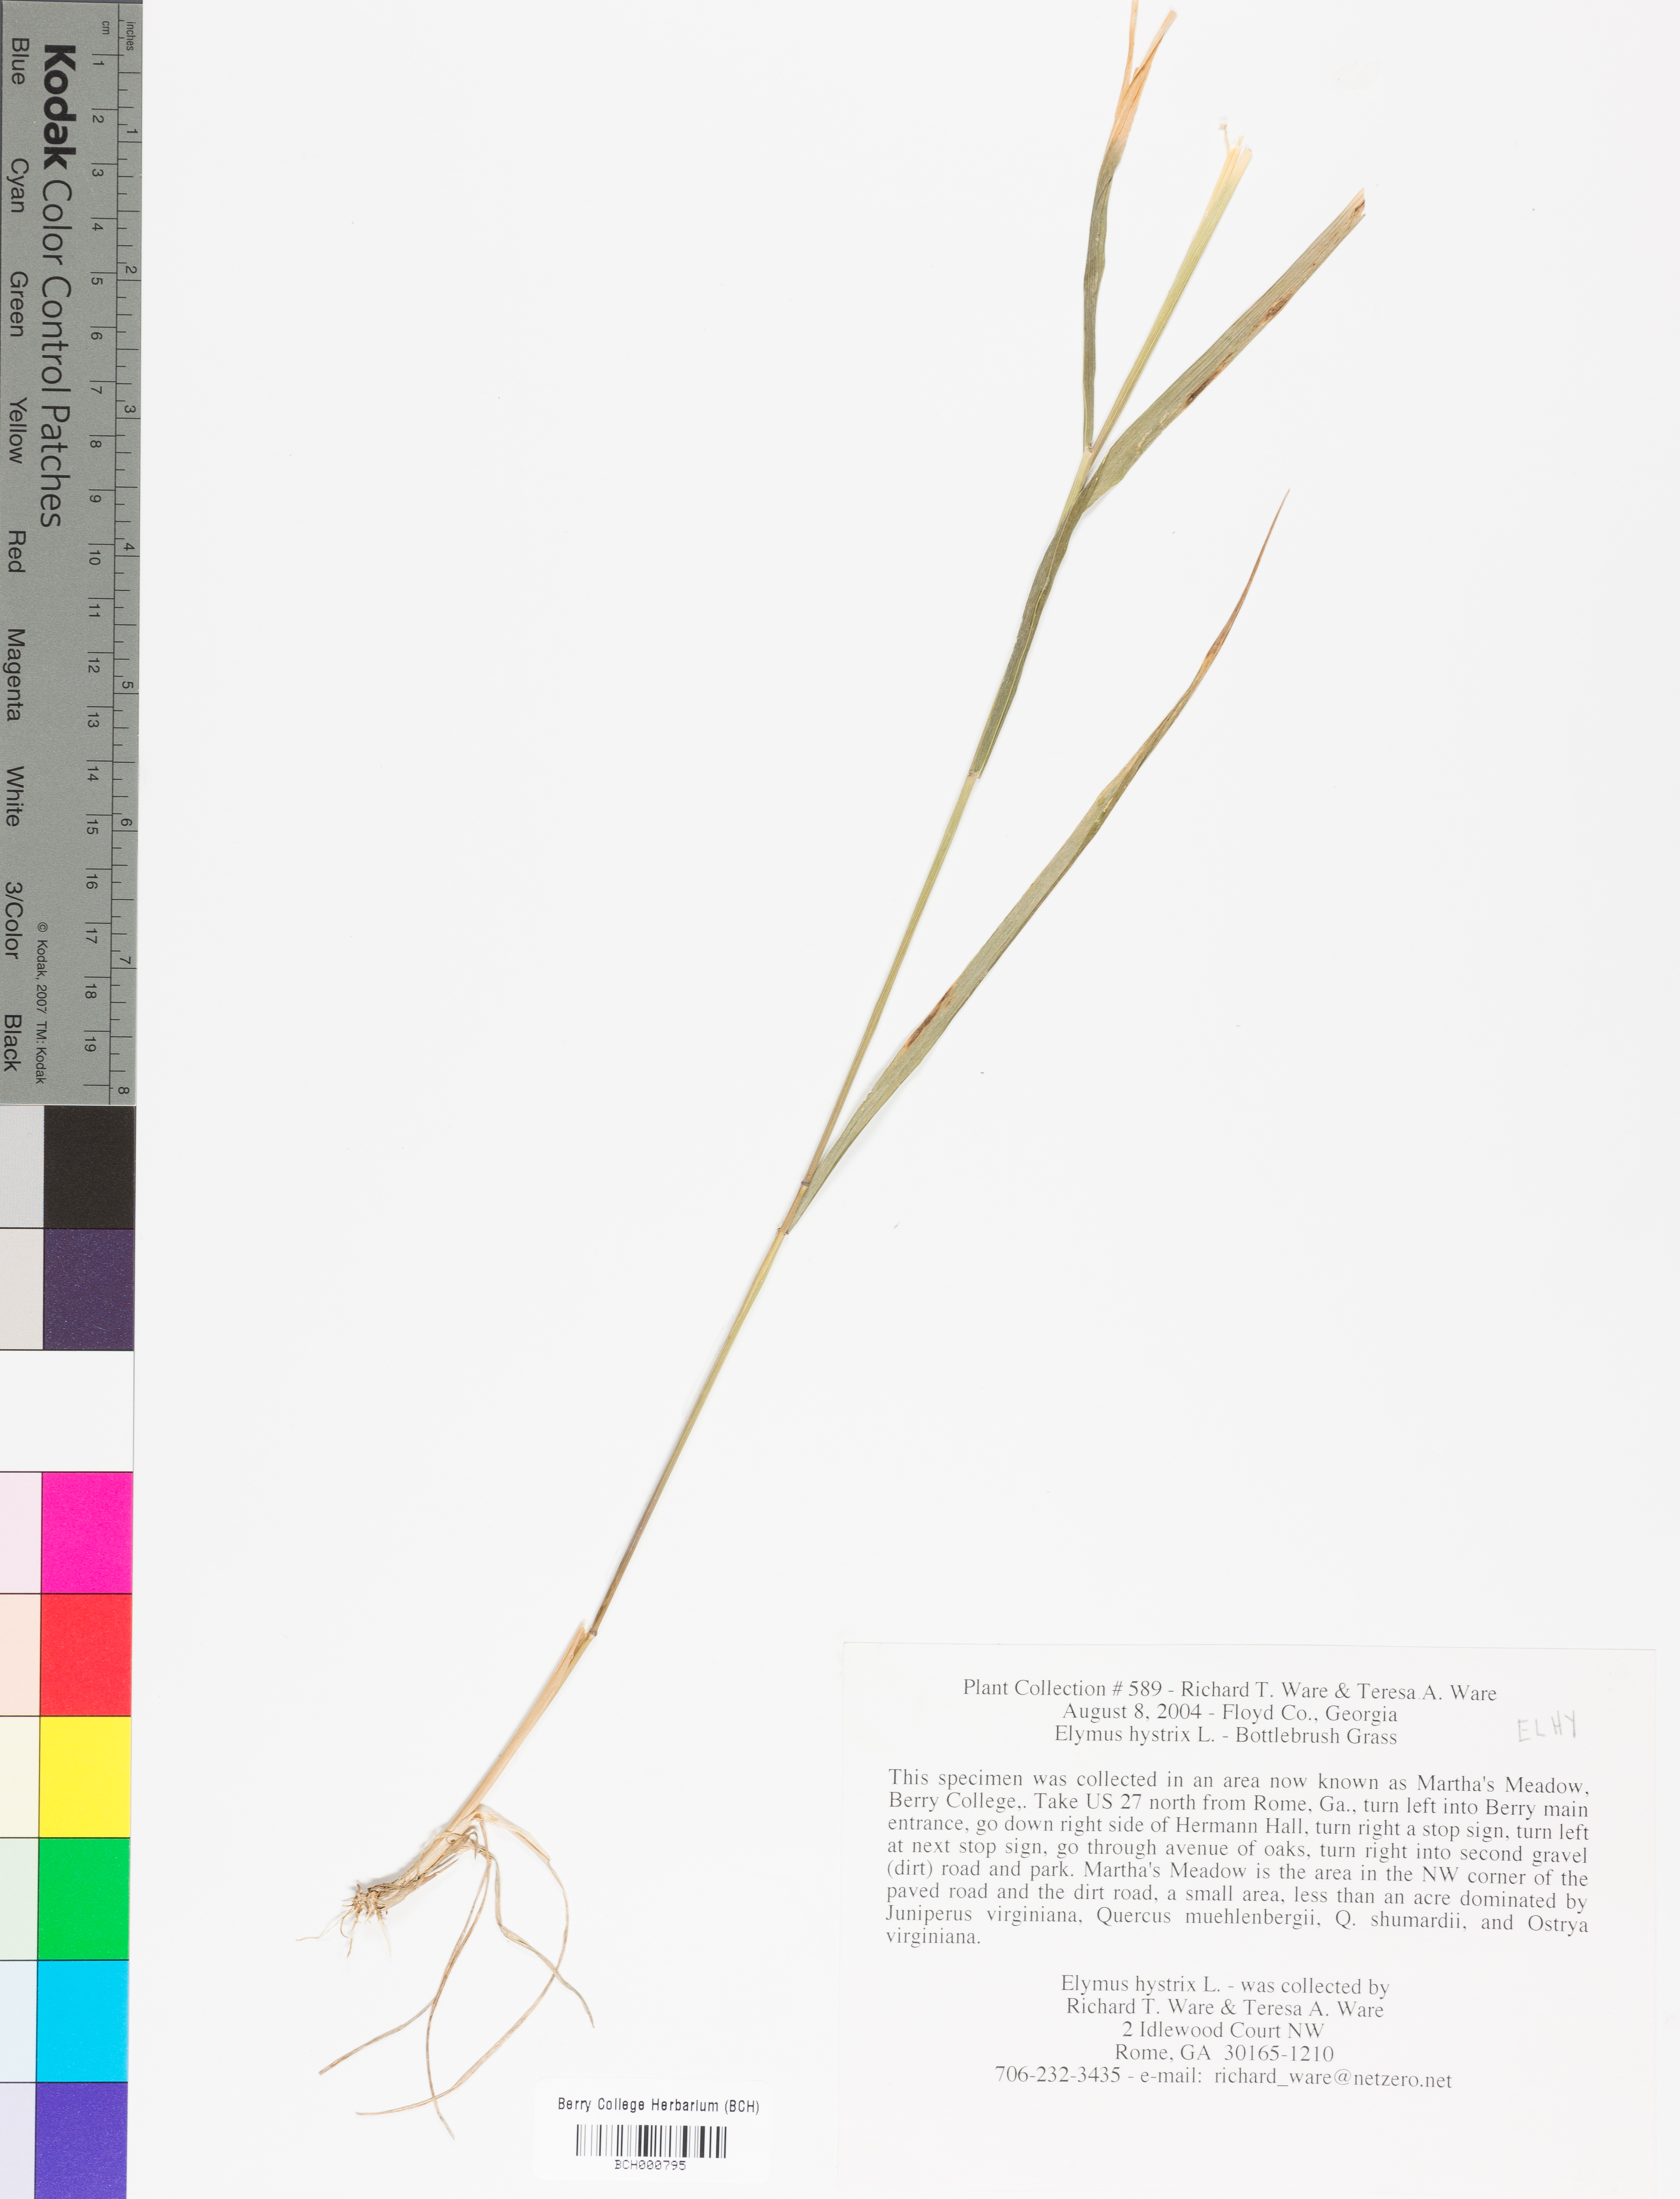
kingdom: Plantae
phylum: Tracheophyta
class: Liliopsida
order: Poales
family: Poaceae
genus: Elymus
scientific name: Elymus hystrix
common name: Bottlebrush grass
